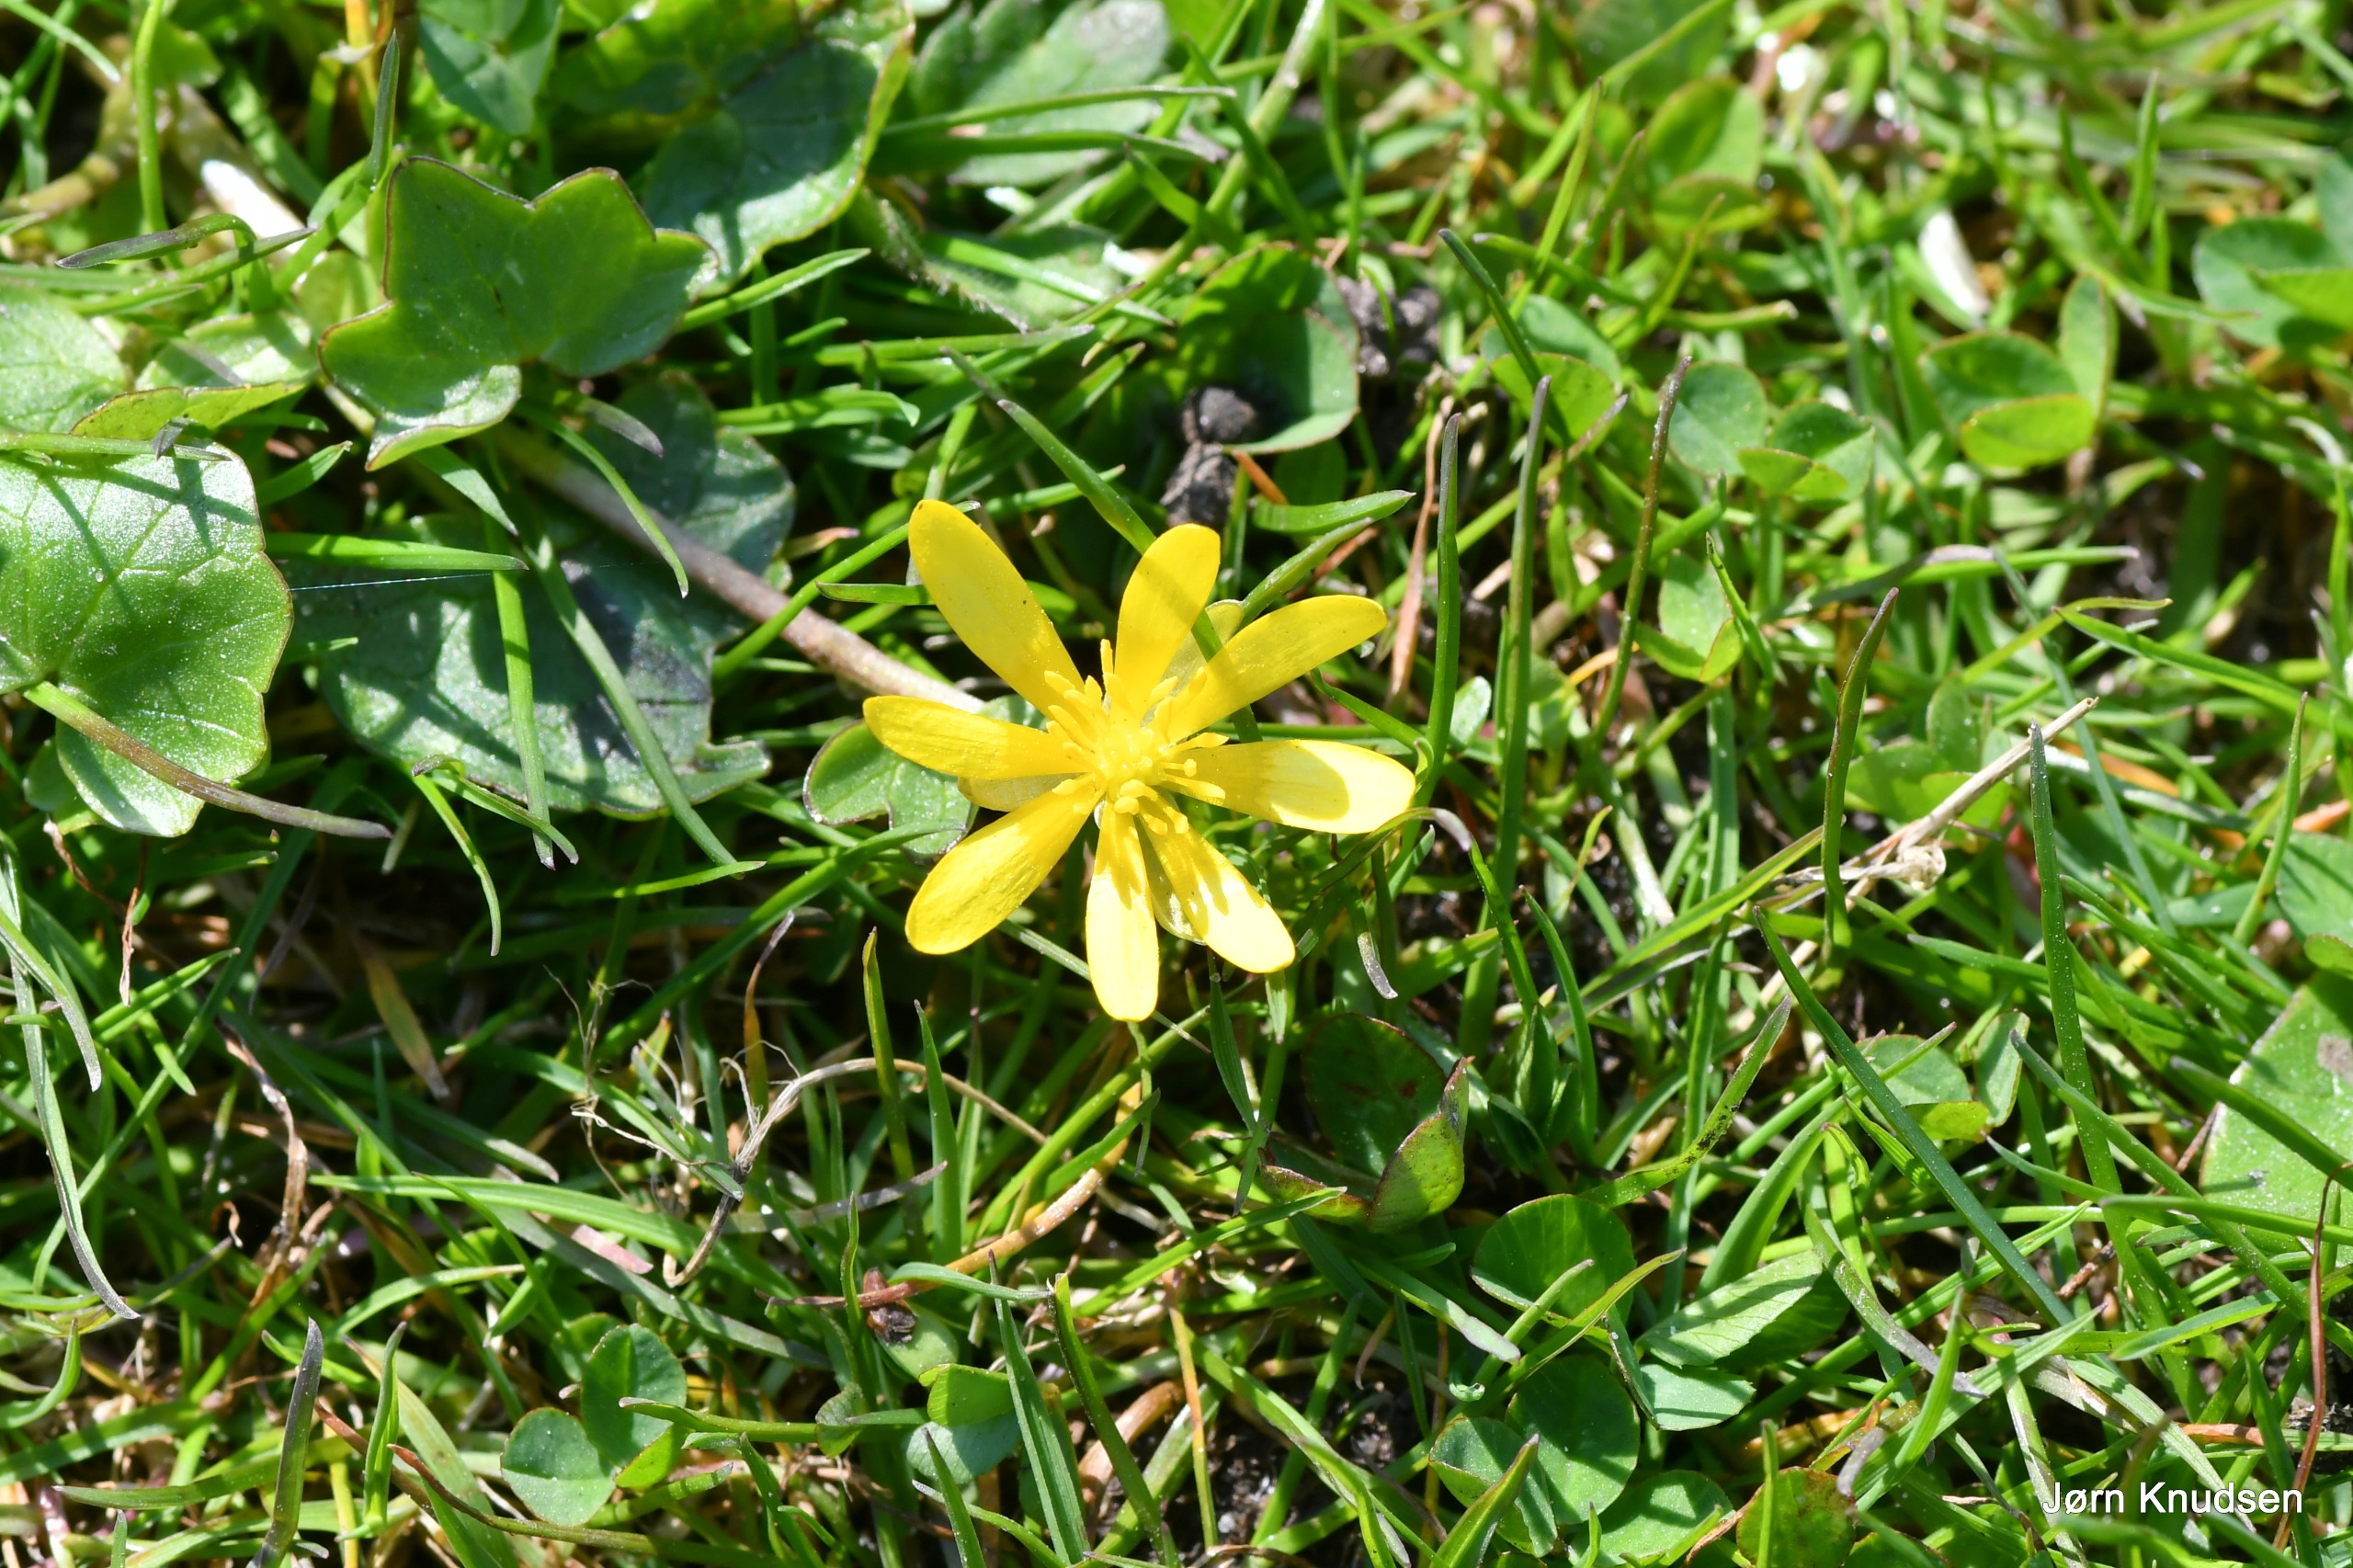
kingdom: Plantae
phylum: Tracheophyta
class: Magnoliopsida
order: Ranunculales
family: Ranunculaceae
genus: Ficaria
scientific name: Ficaria verna
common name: Vorterod
